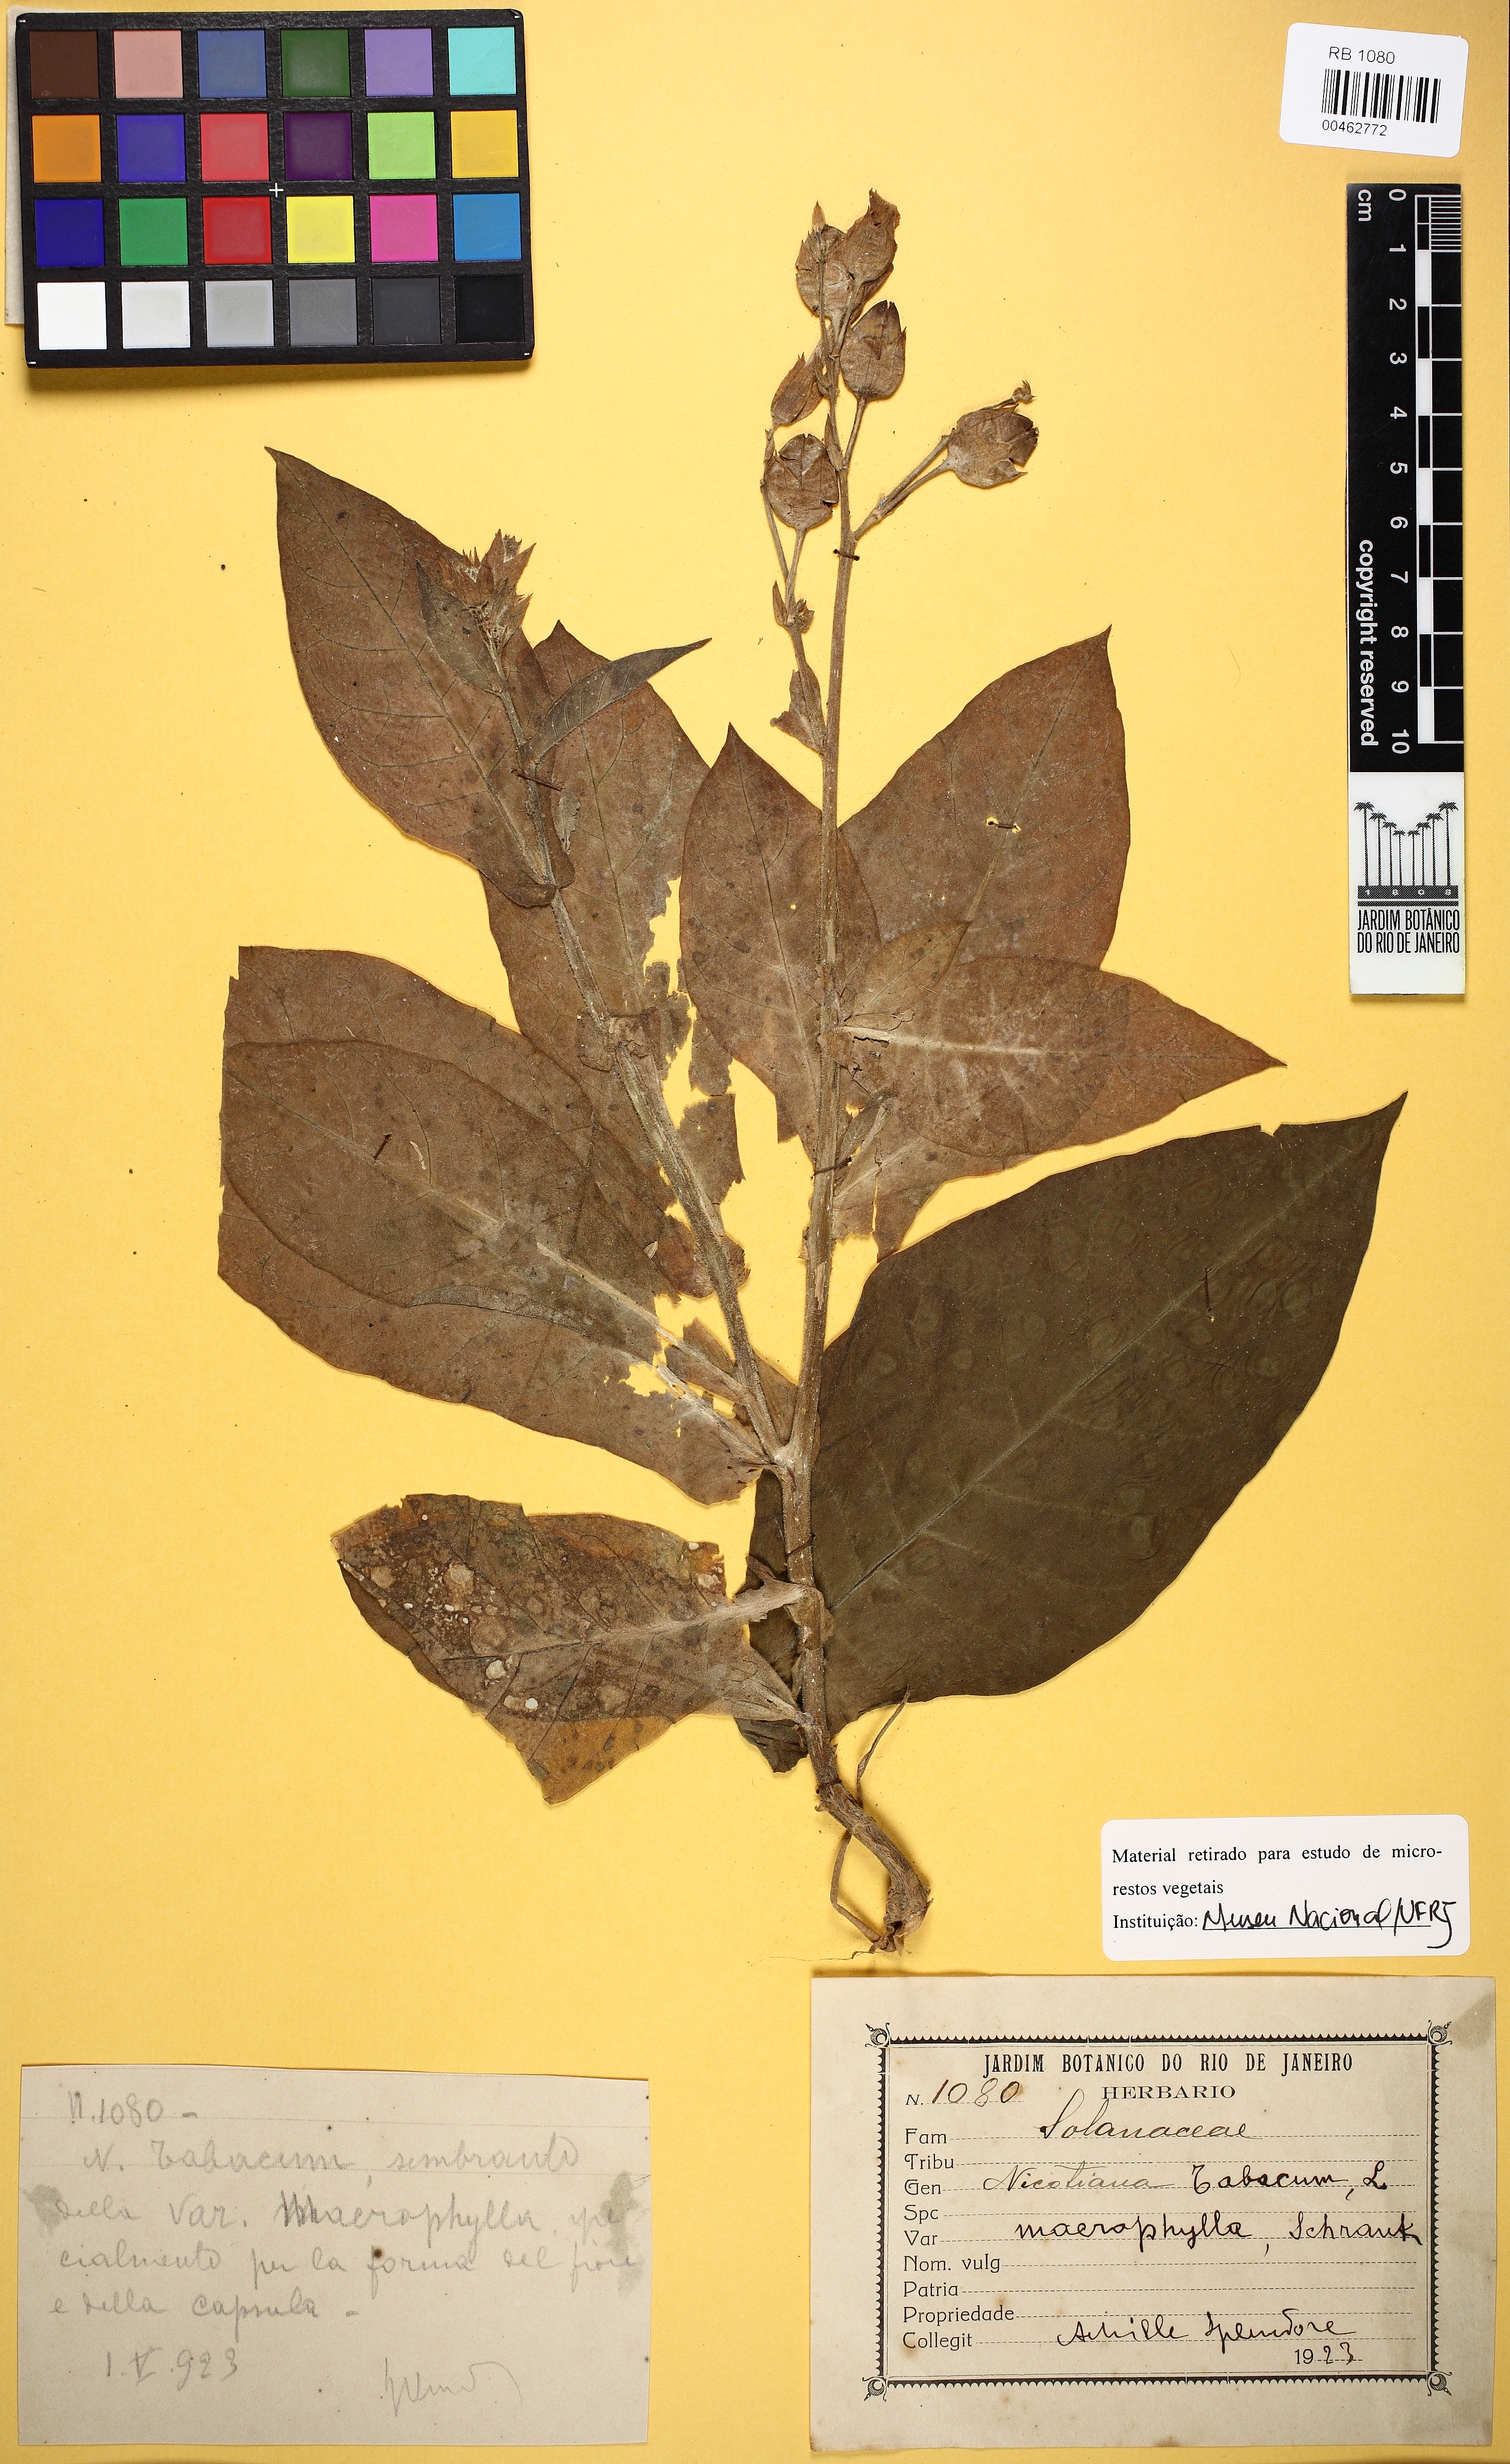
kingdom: Plantae
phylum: Tracheophyta
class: Magnoliopsida
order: Solanales
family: Solanaceae
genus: Nicotiana
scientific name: Nicotiana tabacum
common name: Tobacco
